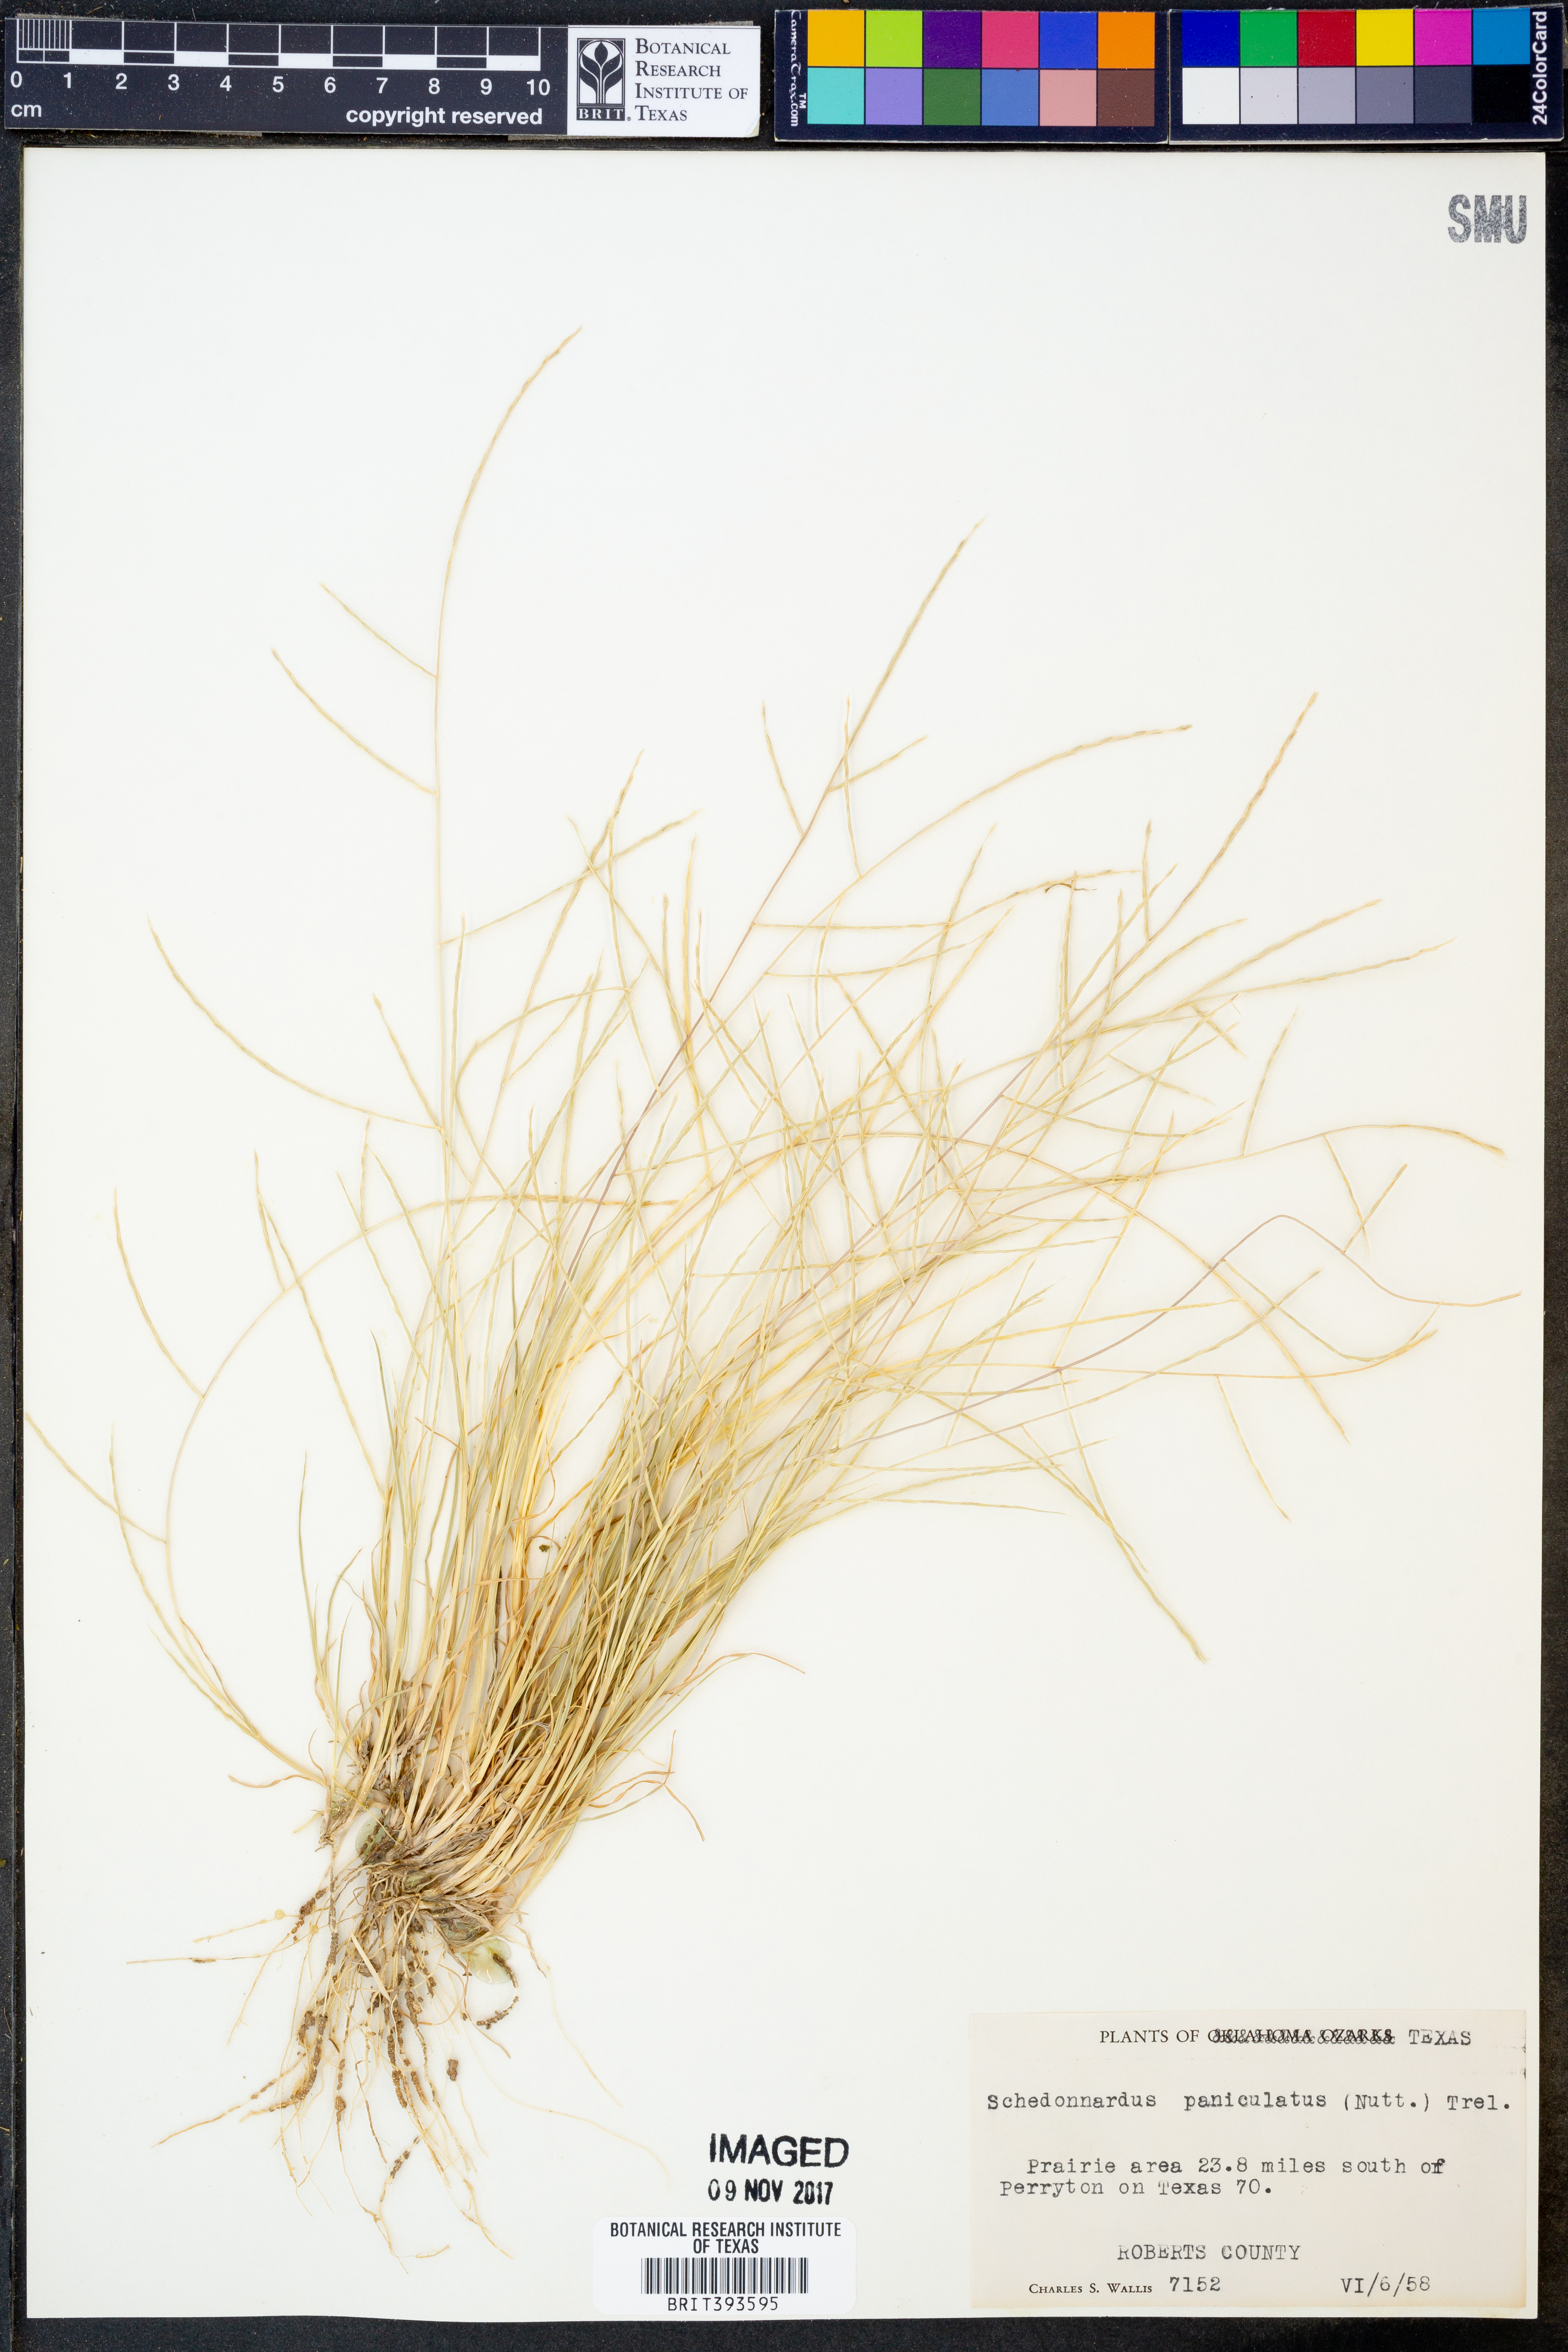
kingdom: Plantae
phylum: Tracheophyta
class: Liliopsida
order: Poales
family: Poaceae
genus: Muhlenbergia
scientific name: Muhlenbergia paniculata
